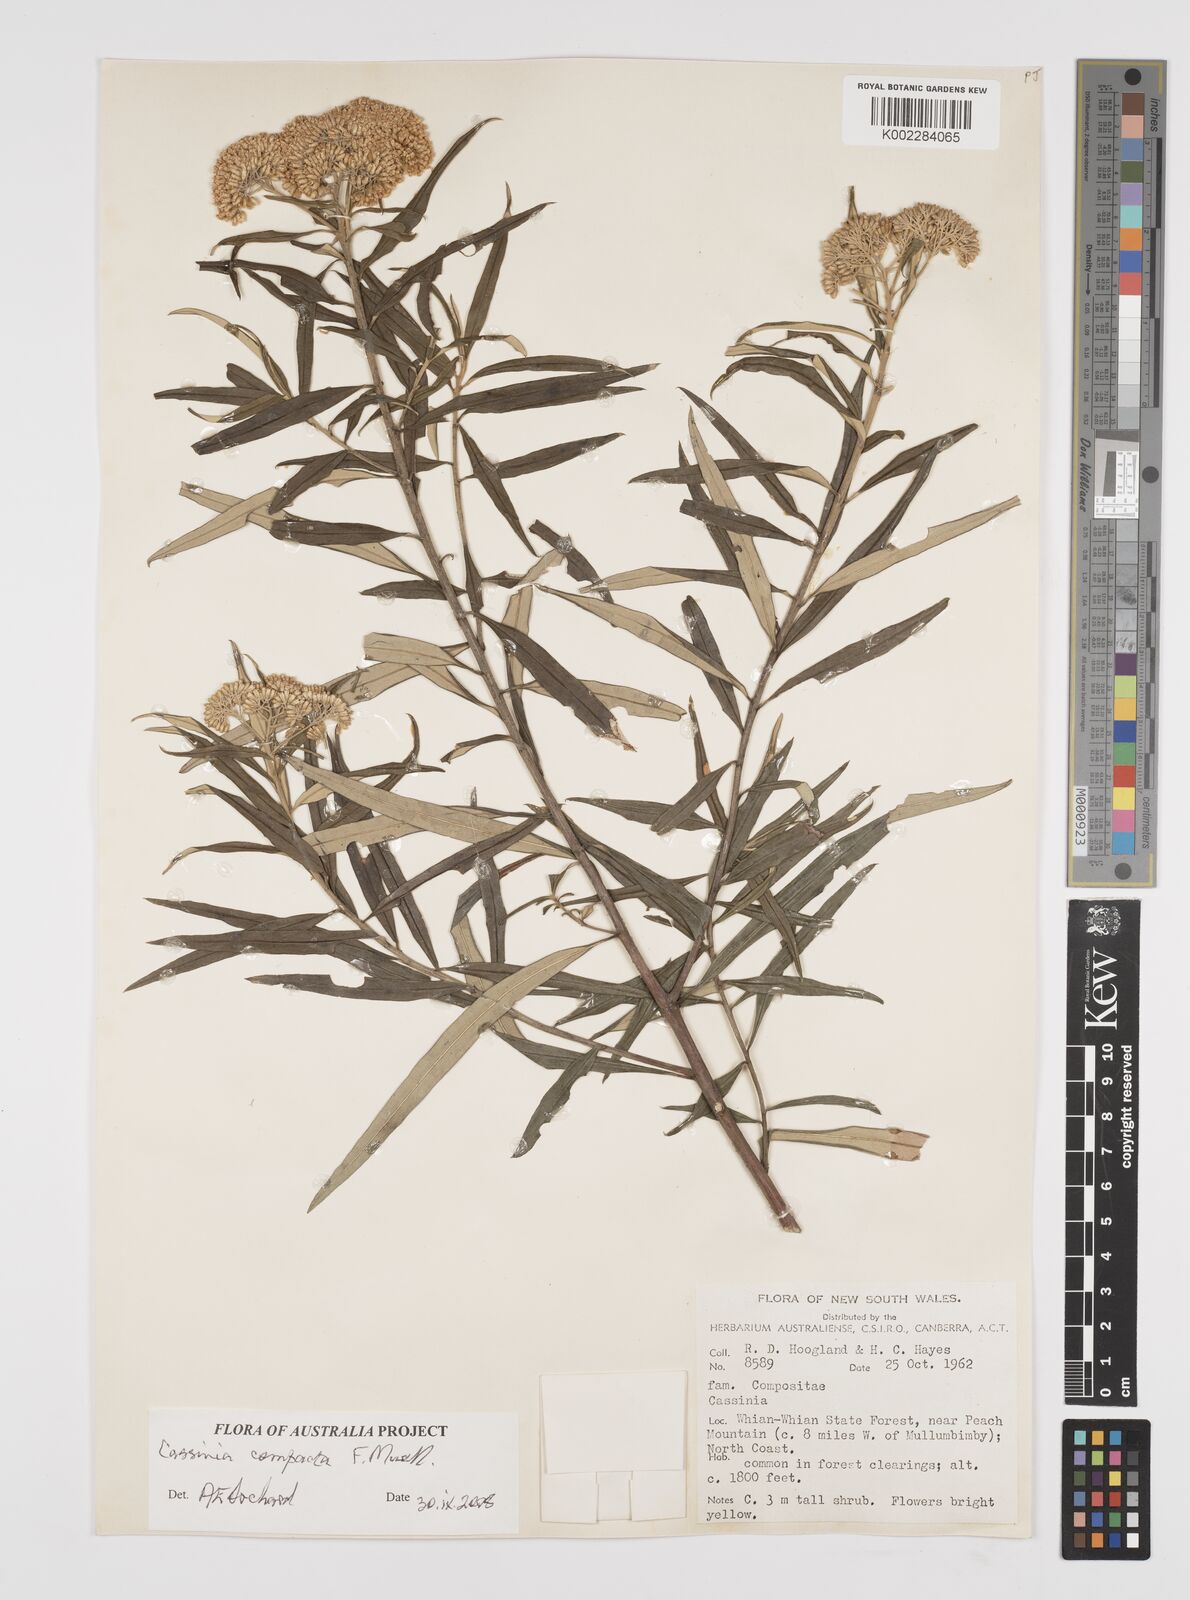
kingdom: Plantae
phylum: Tracheophyta
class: Magnoliopsida
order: Asterales
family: Asteraceae
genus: Cassinia
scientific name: Cassinia compacta
